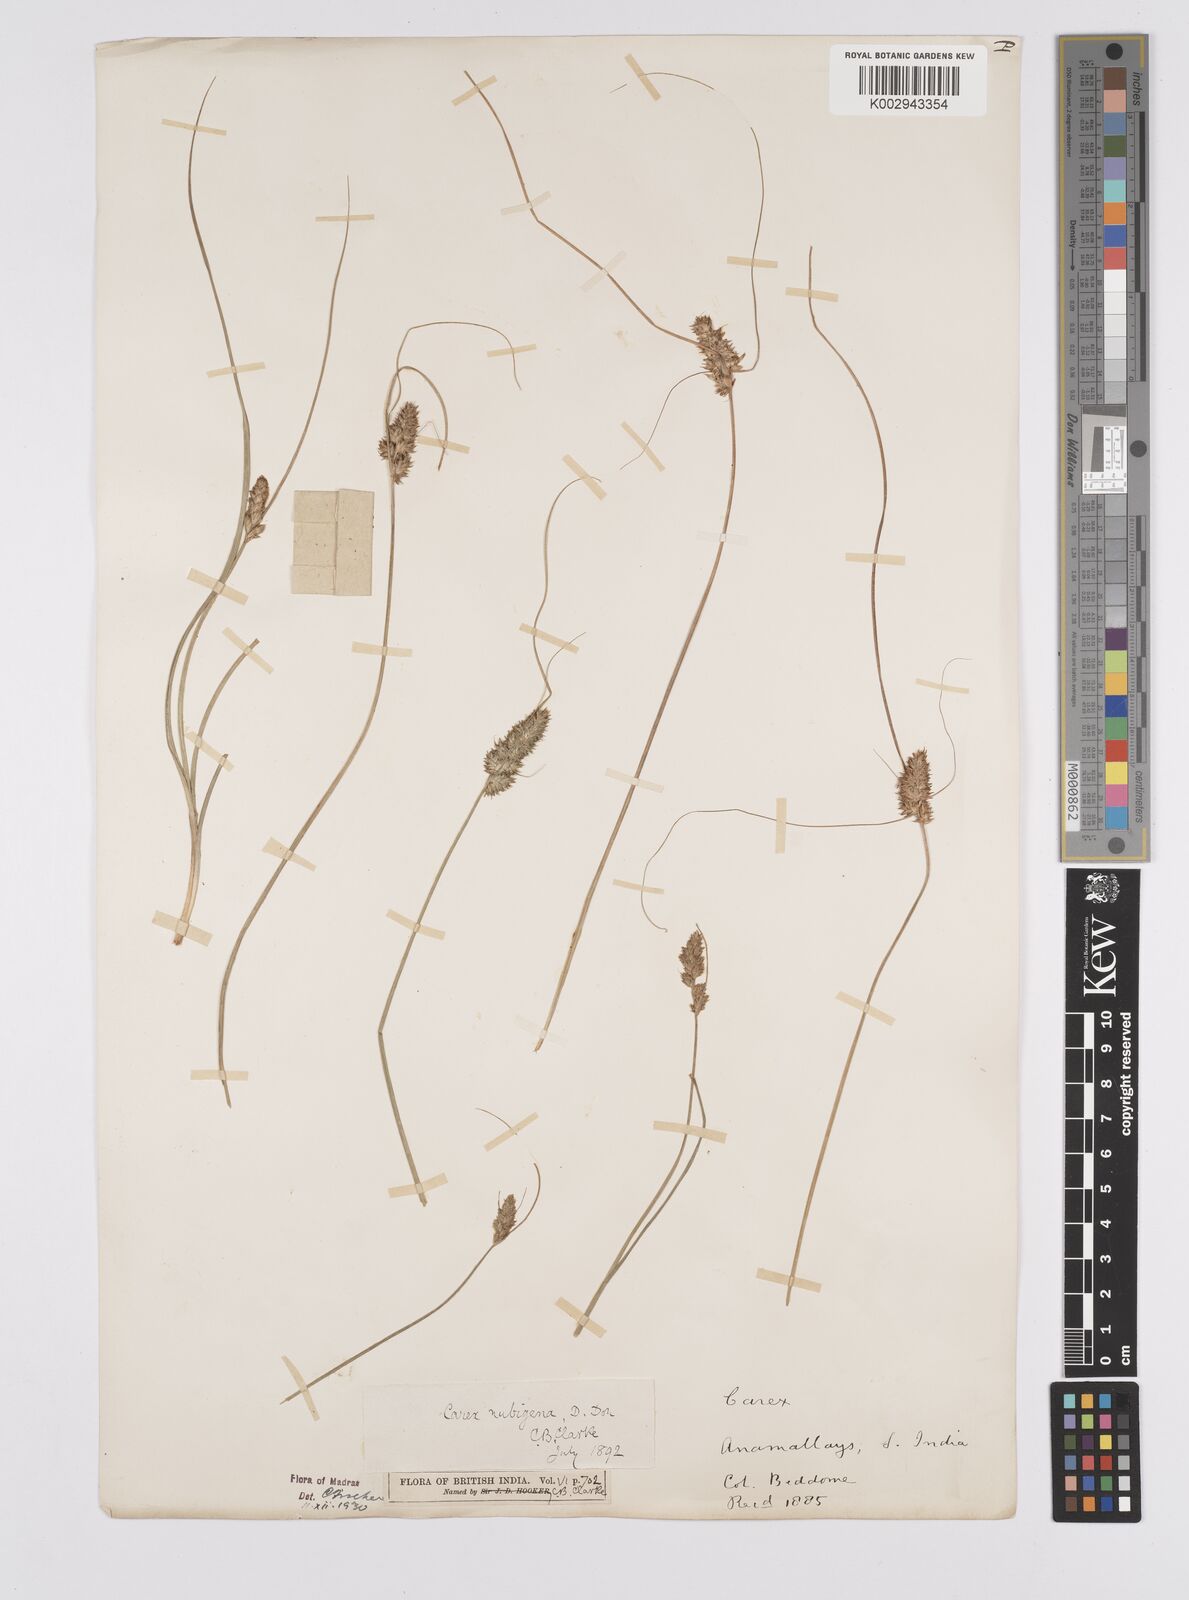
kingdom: Plantae
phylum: Tracheophyta
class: Liliopsida
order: Poales
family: Cyperaceae
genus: Carex
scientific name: Carex nubigena
